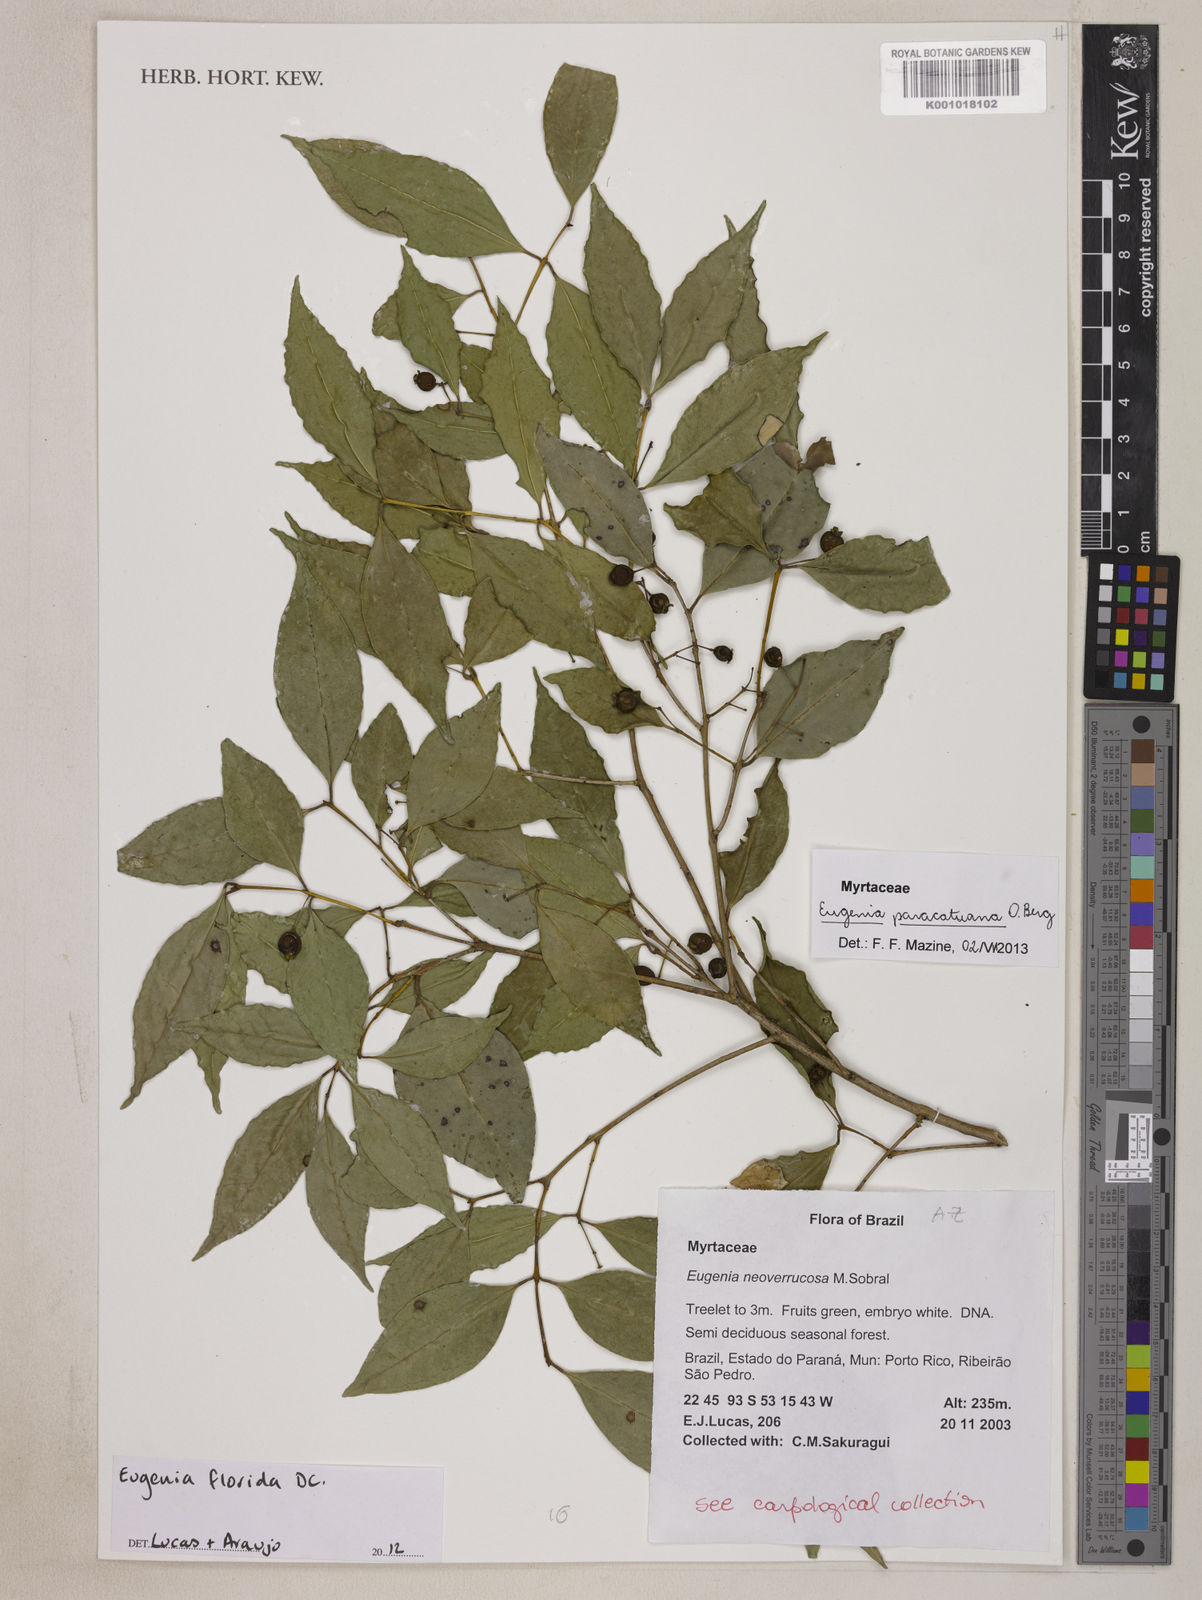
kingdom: Plantae
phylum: Tracheophyta
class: Magnoliopsida
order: Myrtales
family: Myrtaceae
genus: Eugenia
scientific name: Eugenia moraviana
